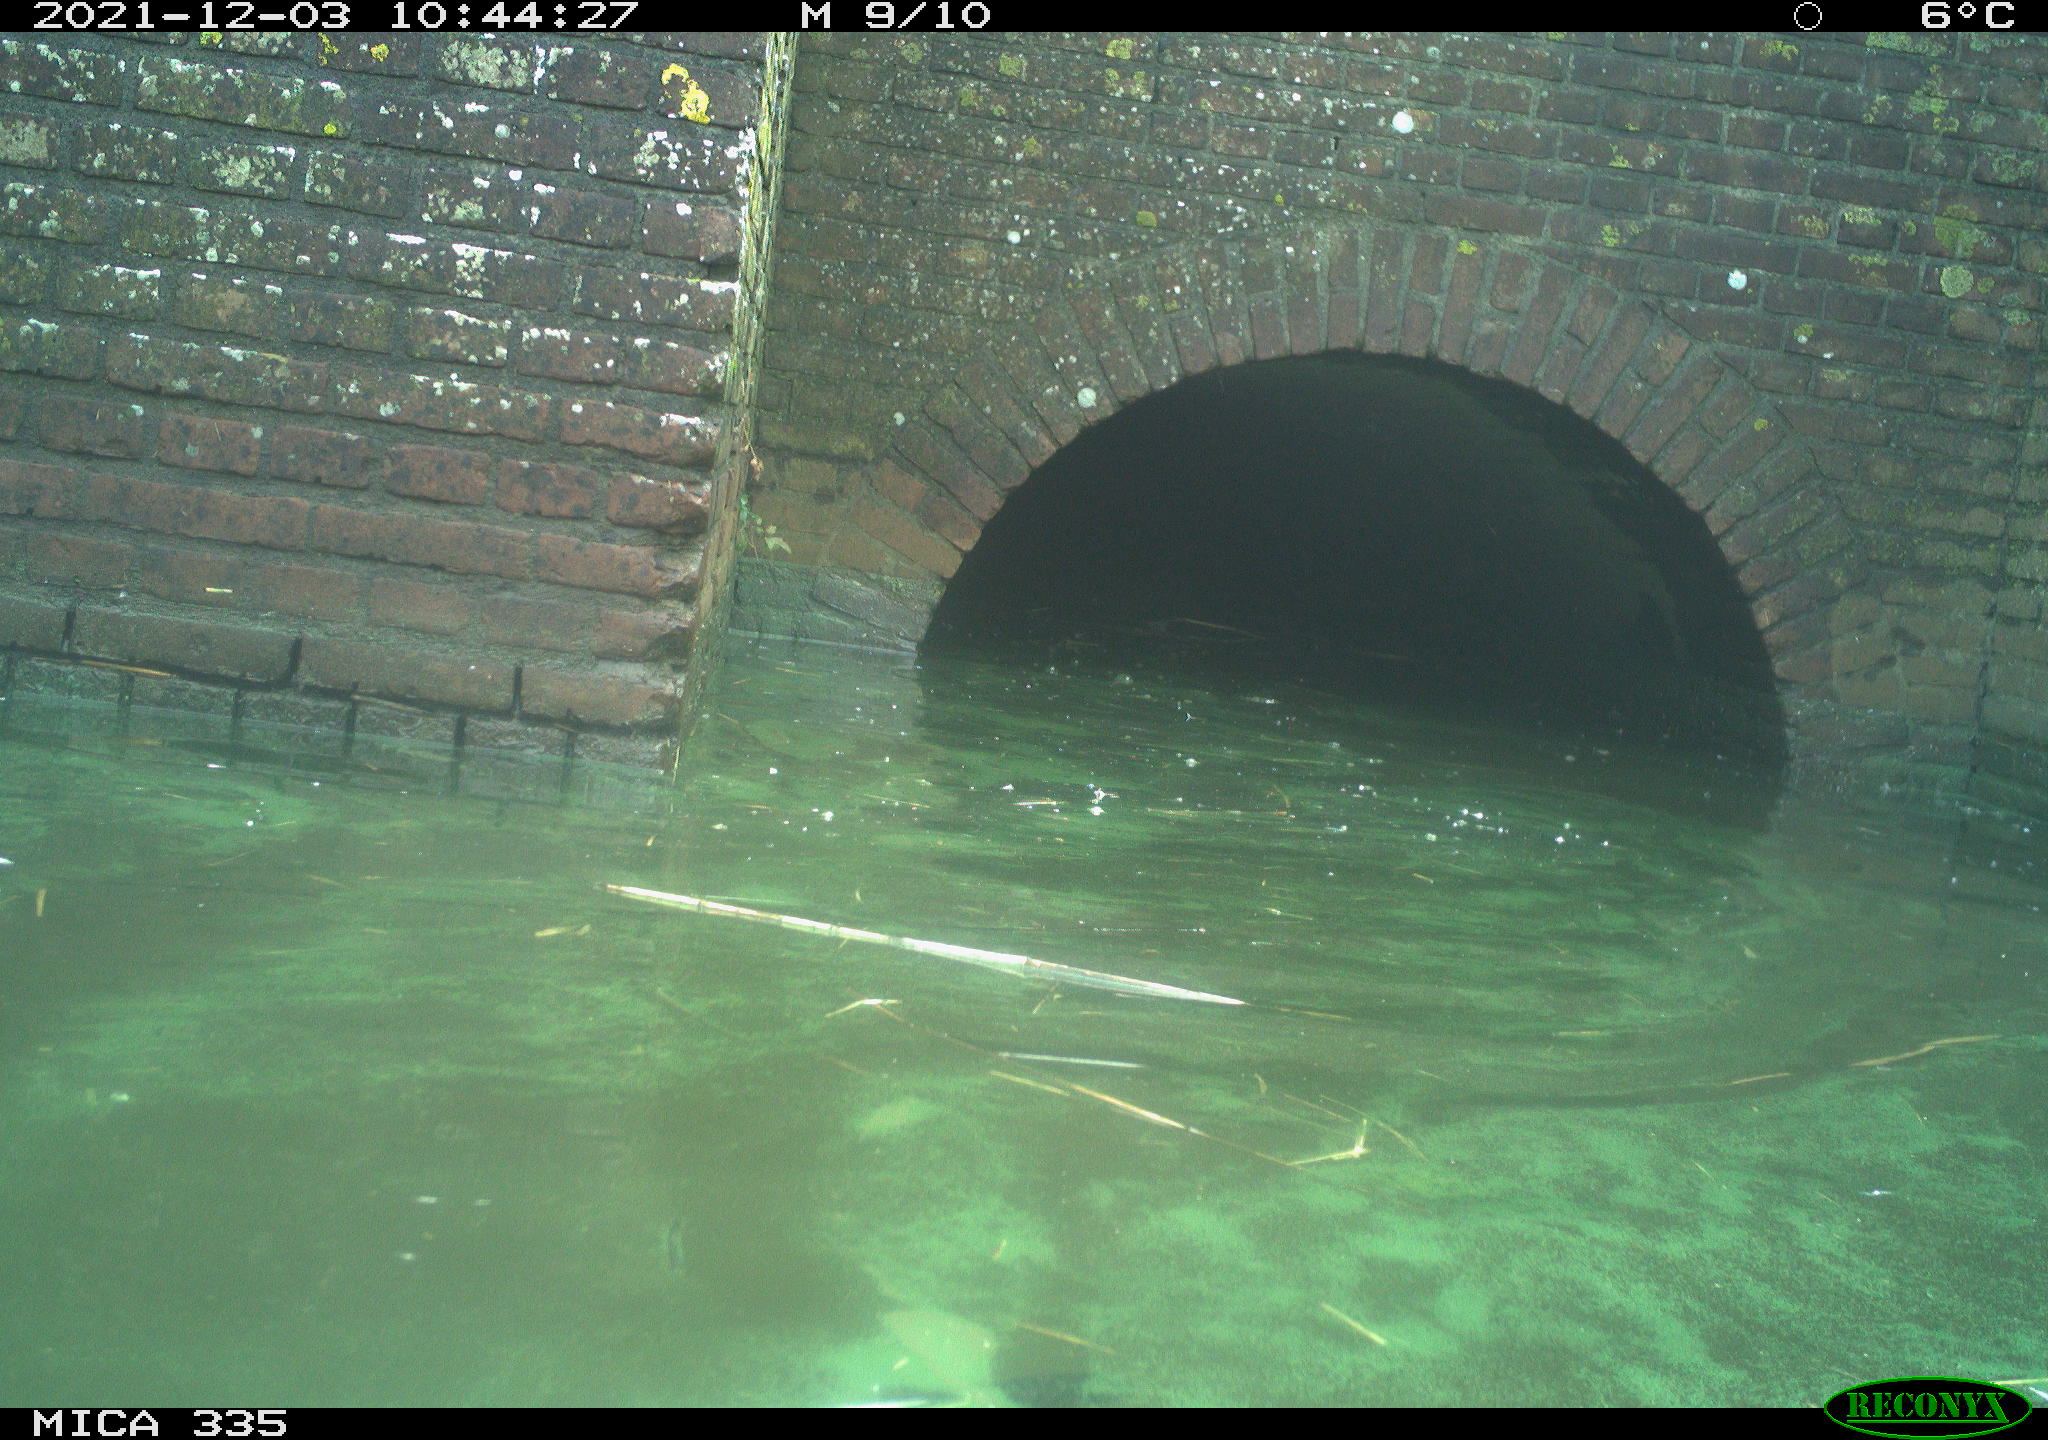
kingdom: Animalia
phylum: Chordata
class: Aves
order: Gruiformes
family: Rallidae
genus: Fulica
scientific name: Fulica atra
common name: Eurasian coot
